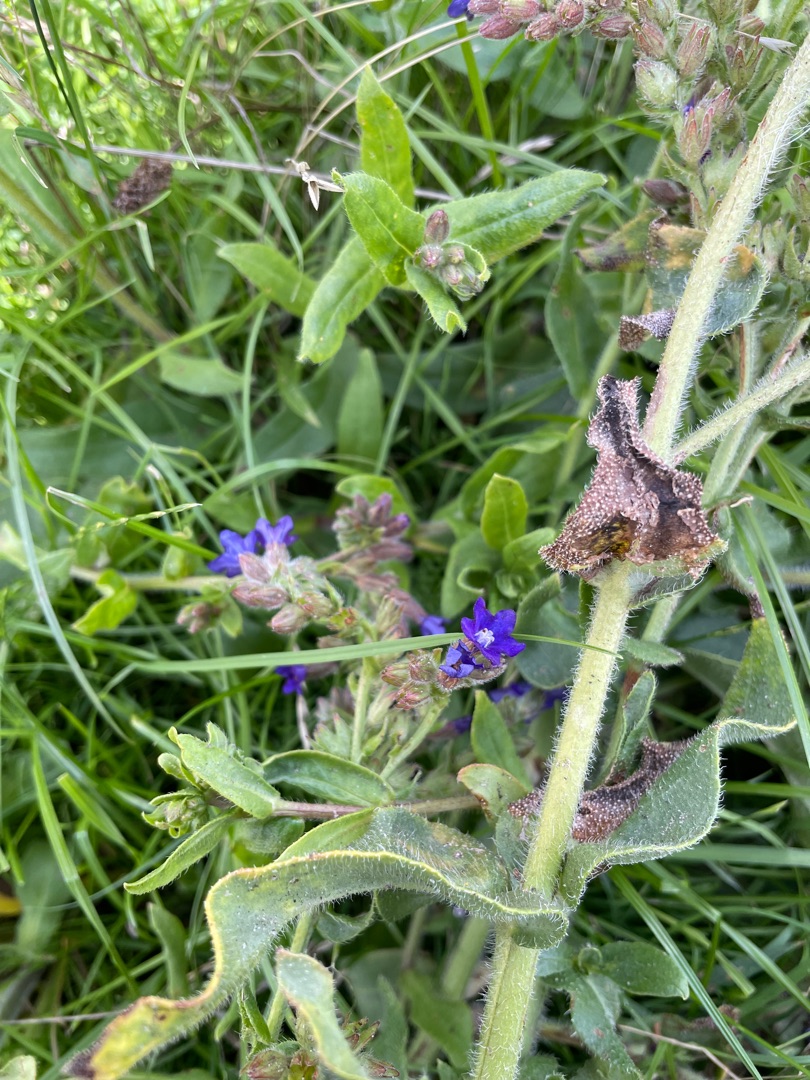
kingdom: Plantae
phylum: Tracheophyta
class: Magnoliopsida
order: Boraginales
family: Boraginaceae
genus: Anchusa
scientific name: Anchusa officinalis
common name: Læge-oksetunge
